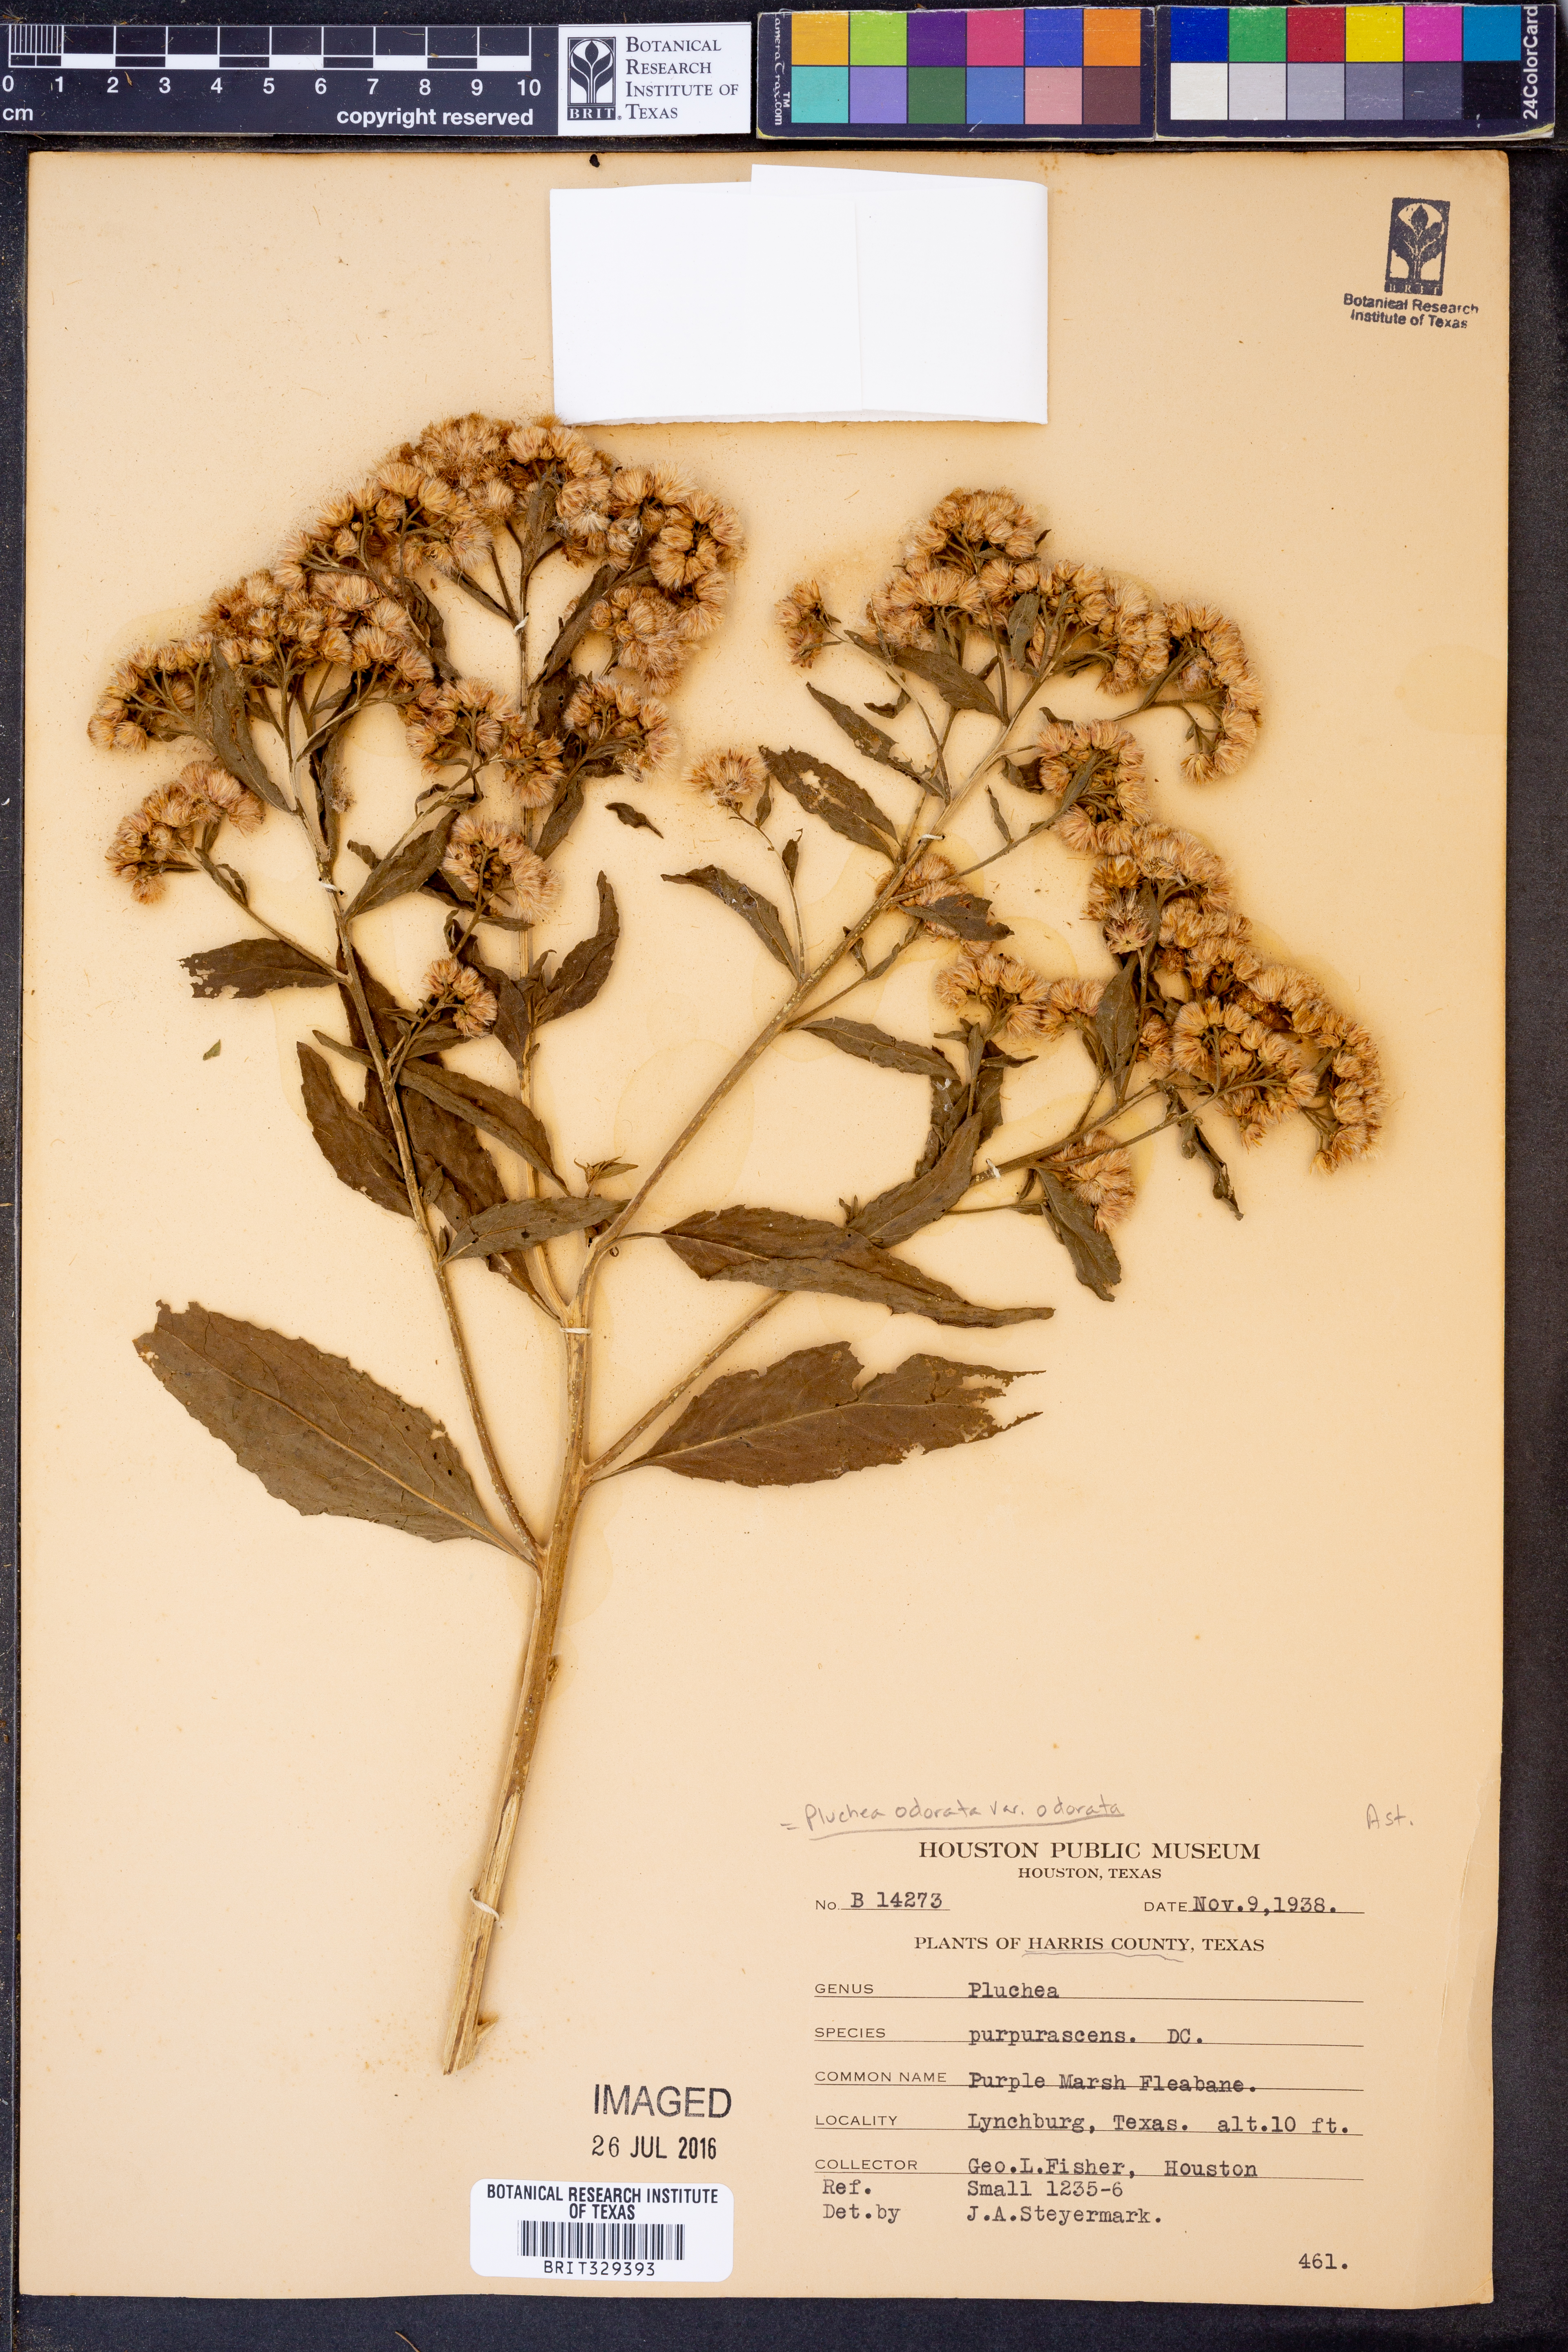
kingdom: Plantae
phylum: Tracheophyta
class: Magnoliopsida
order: Asterales
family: Asteraceae
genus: Pluchea
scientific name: Pluchea odorata
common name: Saltmarsh fleabane
